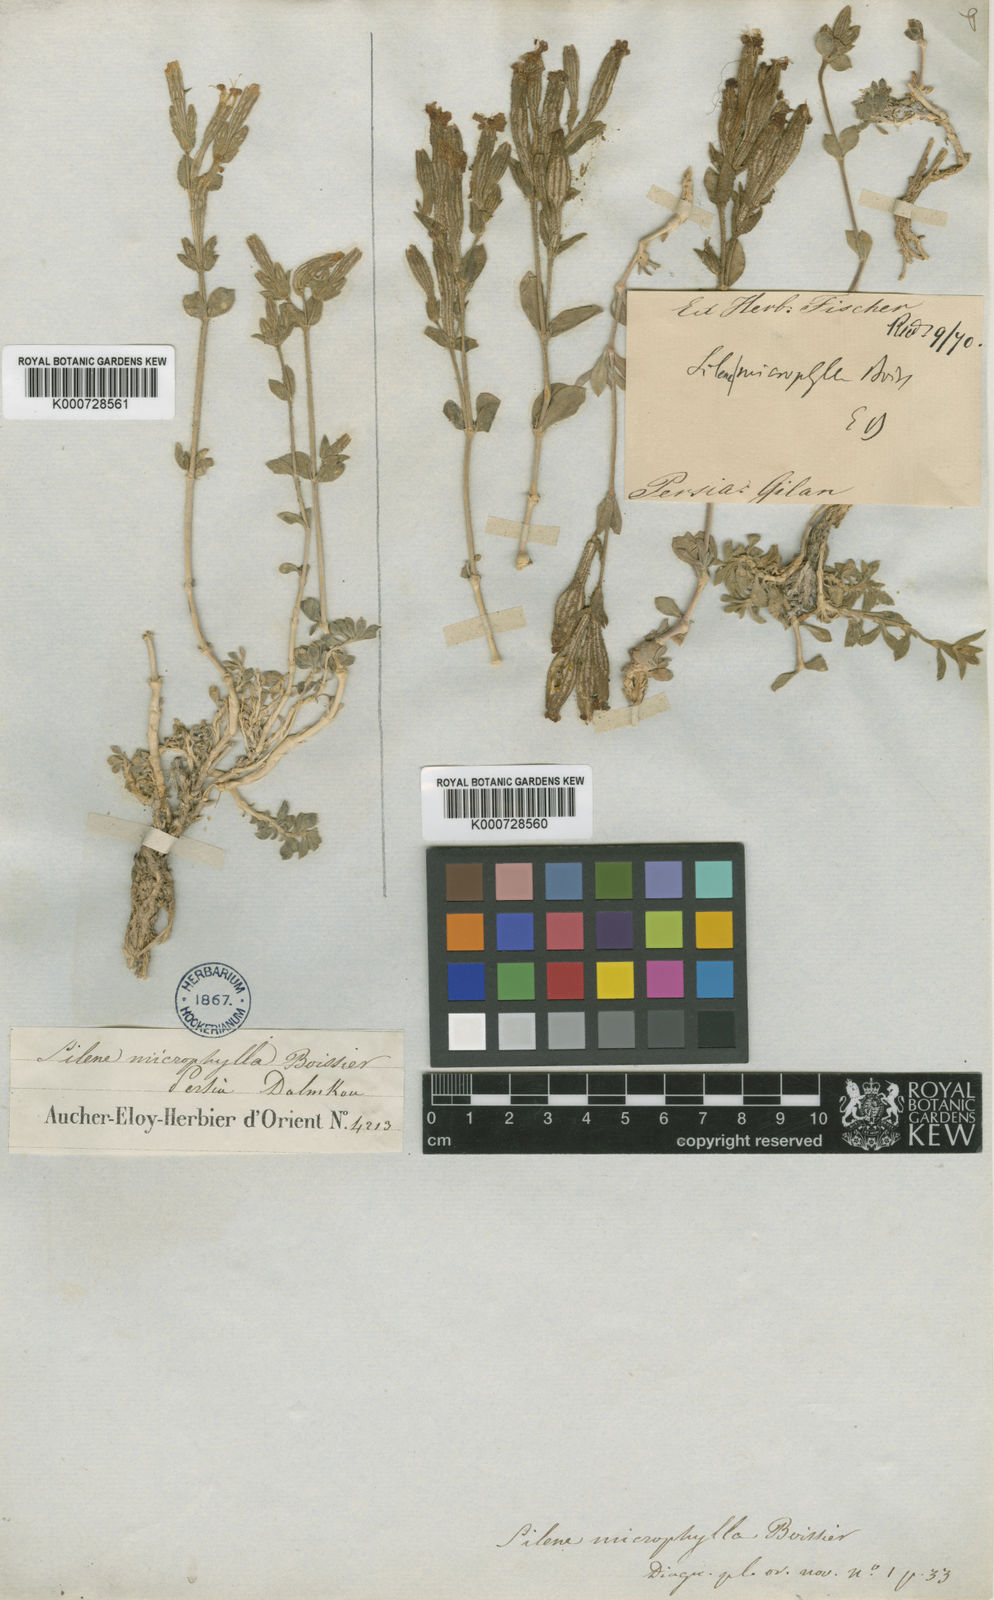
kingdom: Plantae
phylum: Tracheophyta
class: Magnoliopsida
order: Caryophyllales
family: Caryophyllaceae
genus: Silene
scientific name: Silene microphylla
